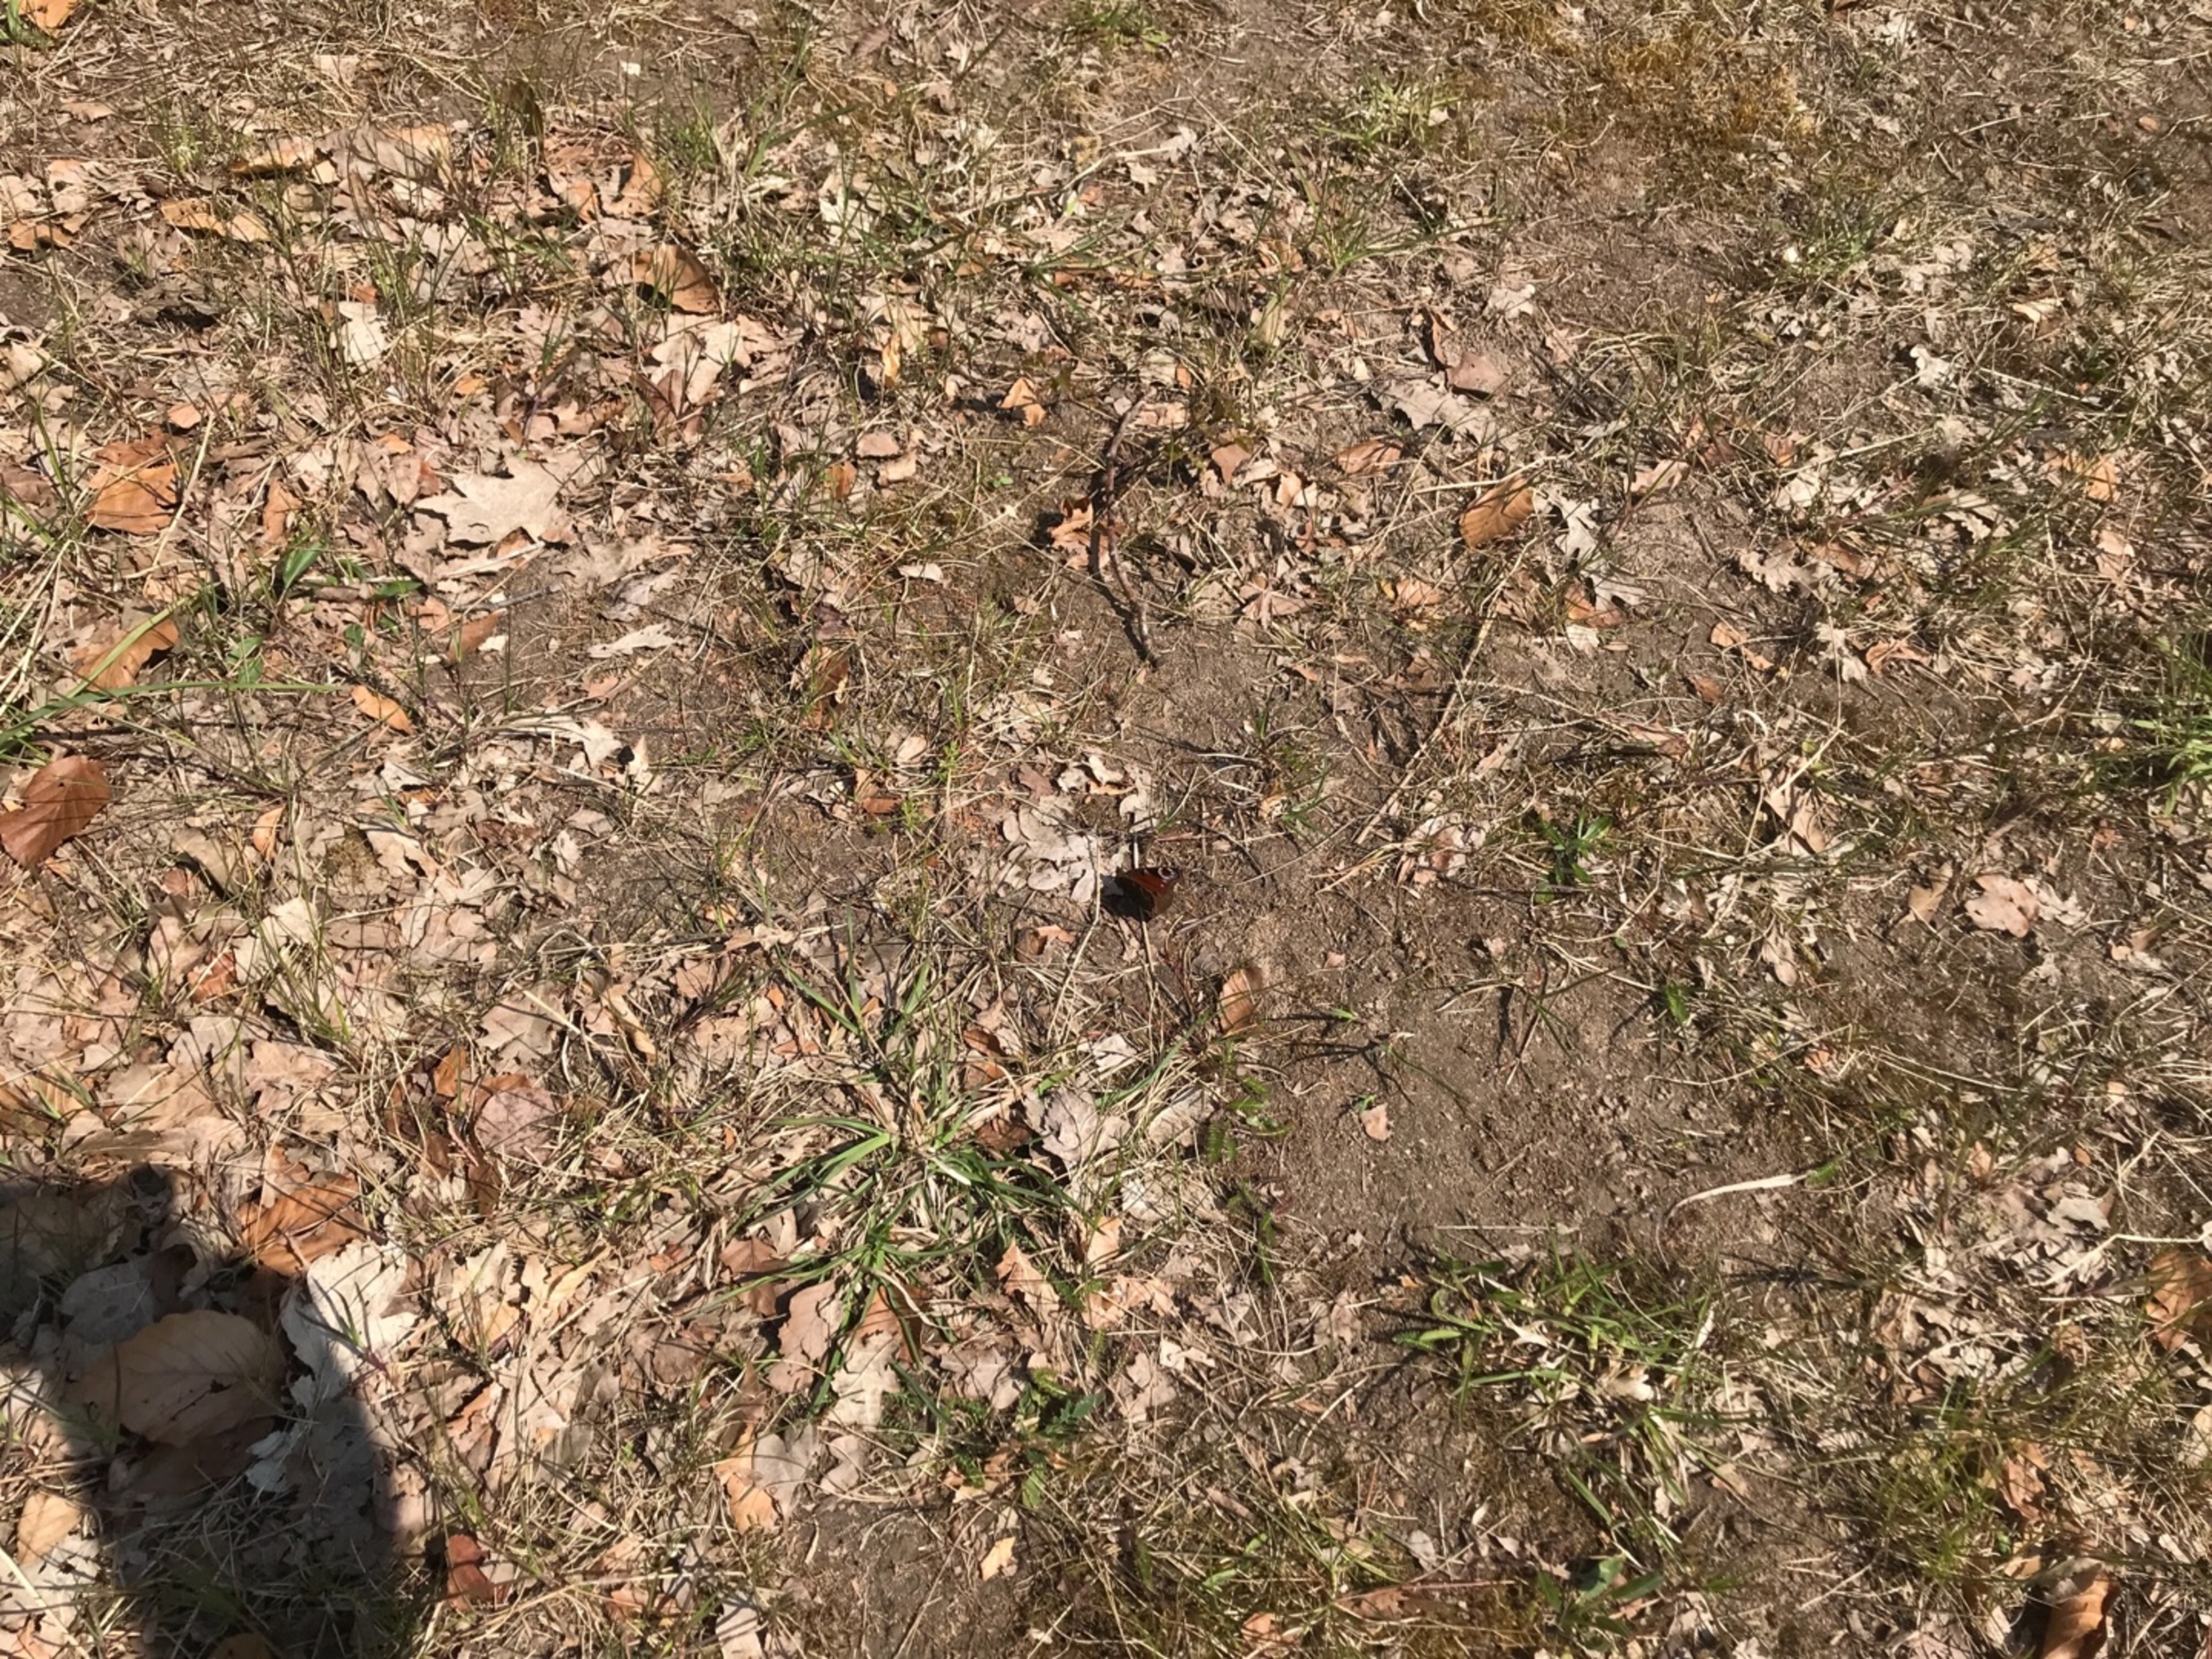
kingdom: Animalia
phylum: Arthropoda
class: Insecta
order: Lepidoptera
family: Nymphalidae
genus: Aglais
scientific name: Aglais io
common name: Dagpåfugleøje
